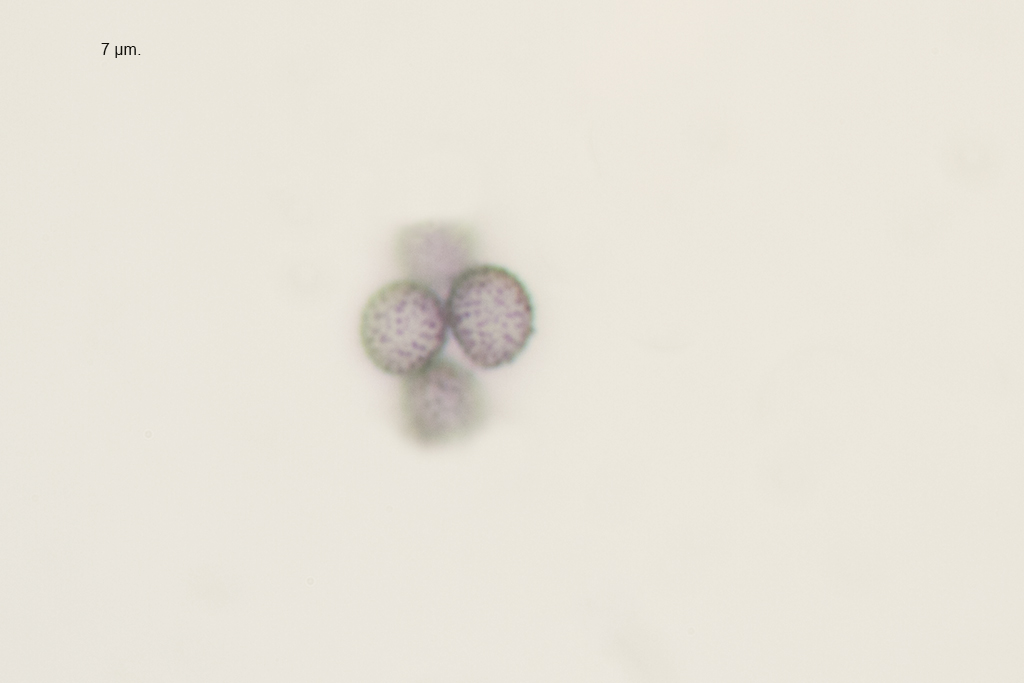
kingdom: Fungi
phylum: Basidiomycota
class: Agaricomycetes
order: Russulales
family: Russulaceae
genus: Russula
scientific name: Russula farinipes
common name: gul kam-skørhat
